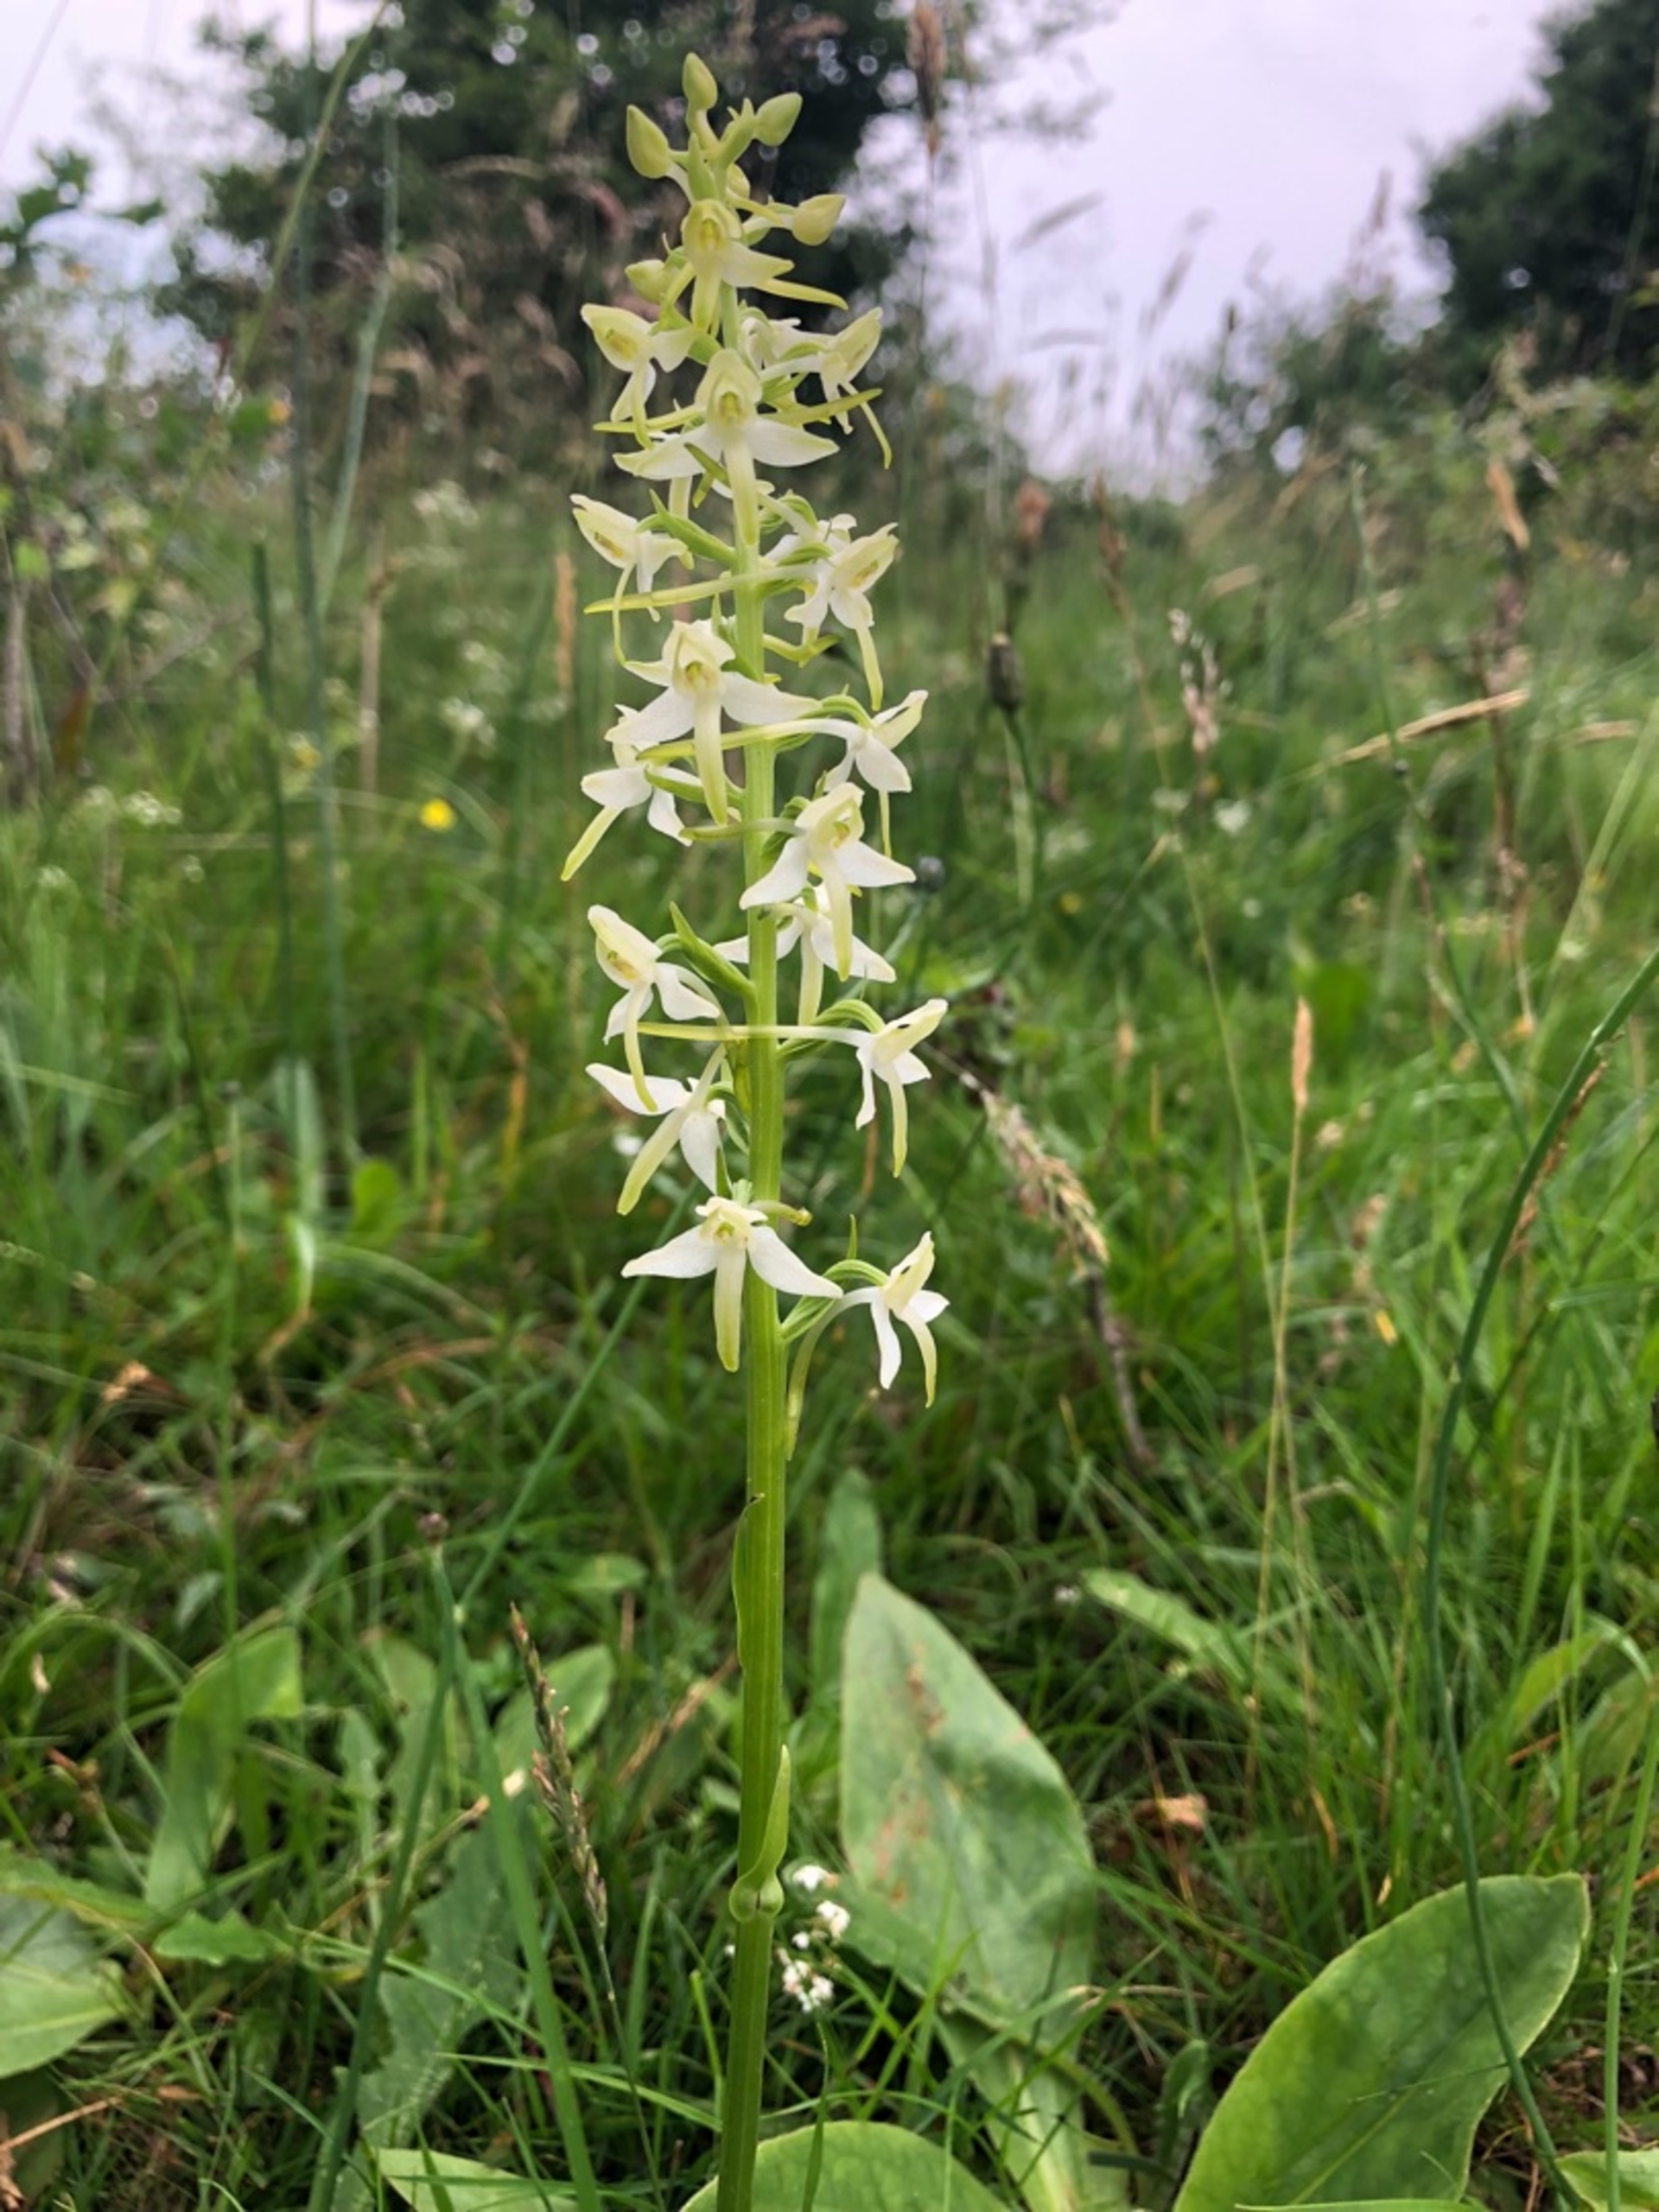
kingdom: Plantae
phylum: Tracheophyta
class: Liliopsida
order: Asparagales
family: Orchidaceae
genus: Platanthera
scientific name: Platanthera bifolia
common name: Bakke-gøgelilje
